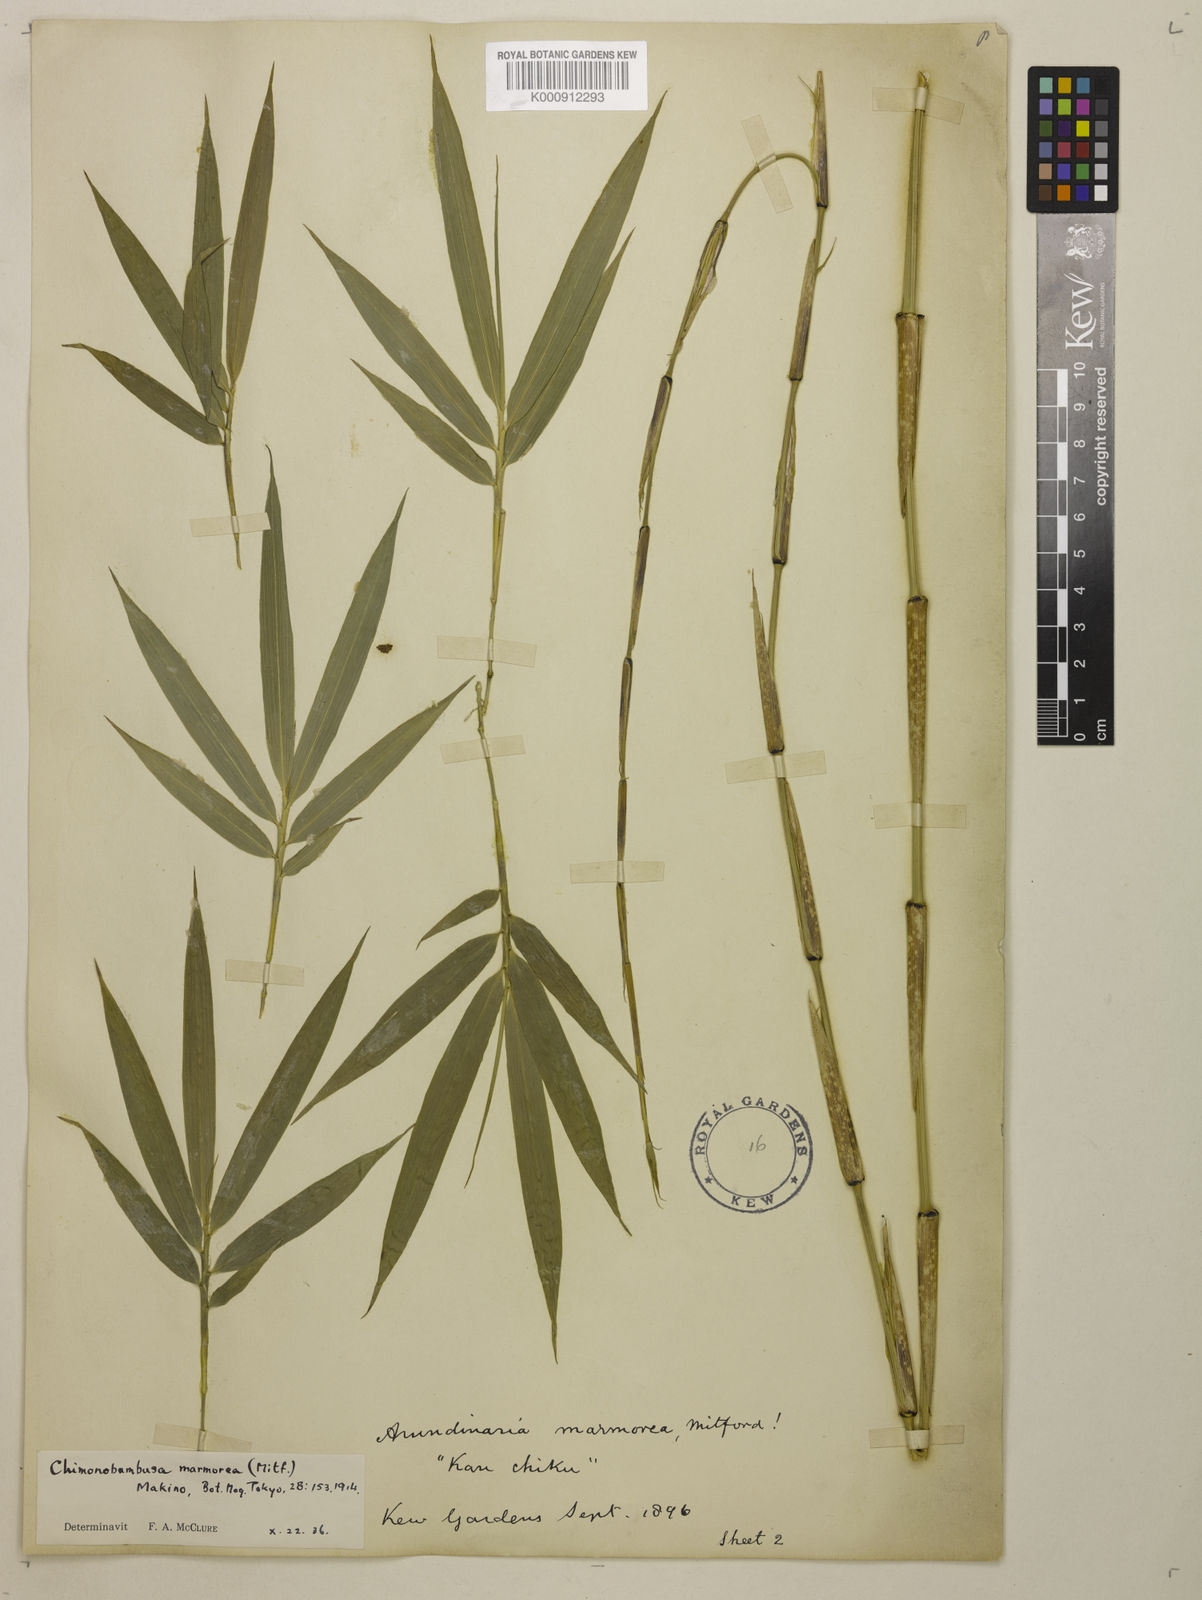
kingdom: Plantae
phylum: Tracheophyta
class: Liliopsida
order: Poales
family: Poaceae
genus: Chimonobambusa
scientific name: Chimonobambusa marmorea
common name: Marbled bamboo
